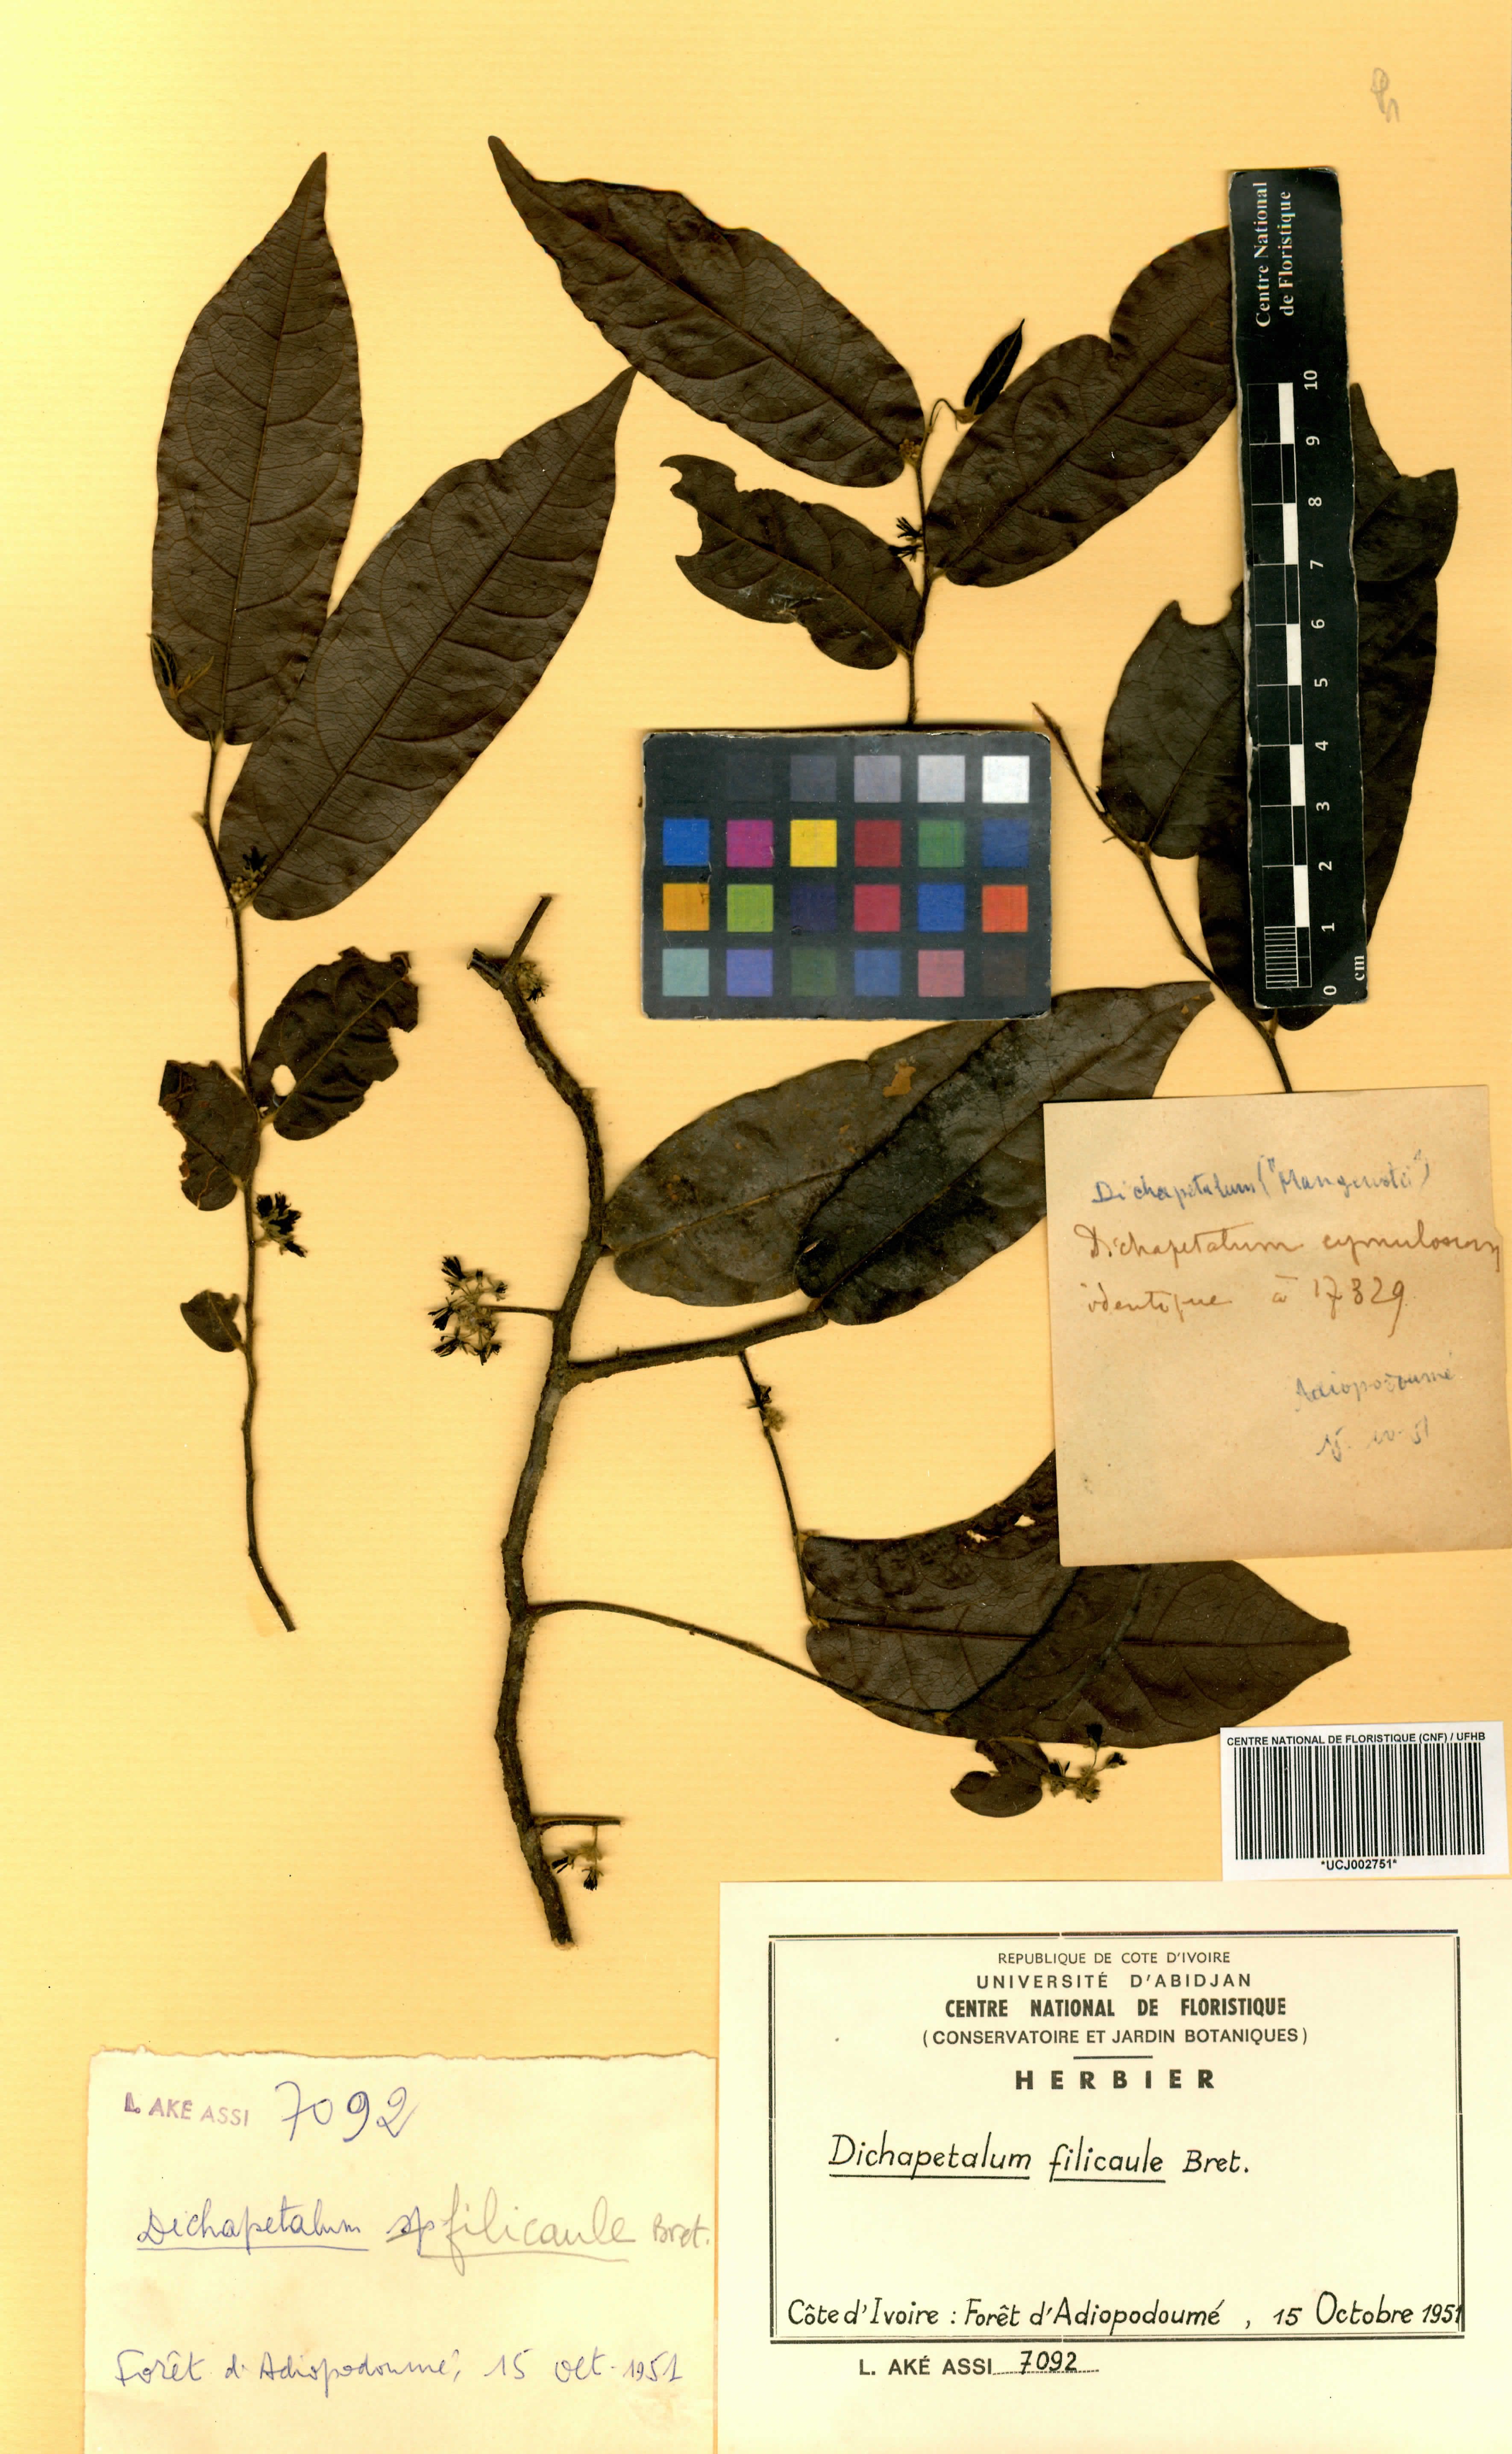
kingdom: Plantae
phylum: Tracheophyta
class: Magnoliopsida
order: Malpighiales
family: Dichapetalaceae
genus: Dichapetalum
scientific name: Dichapetalum filicaule
